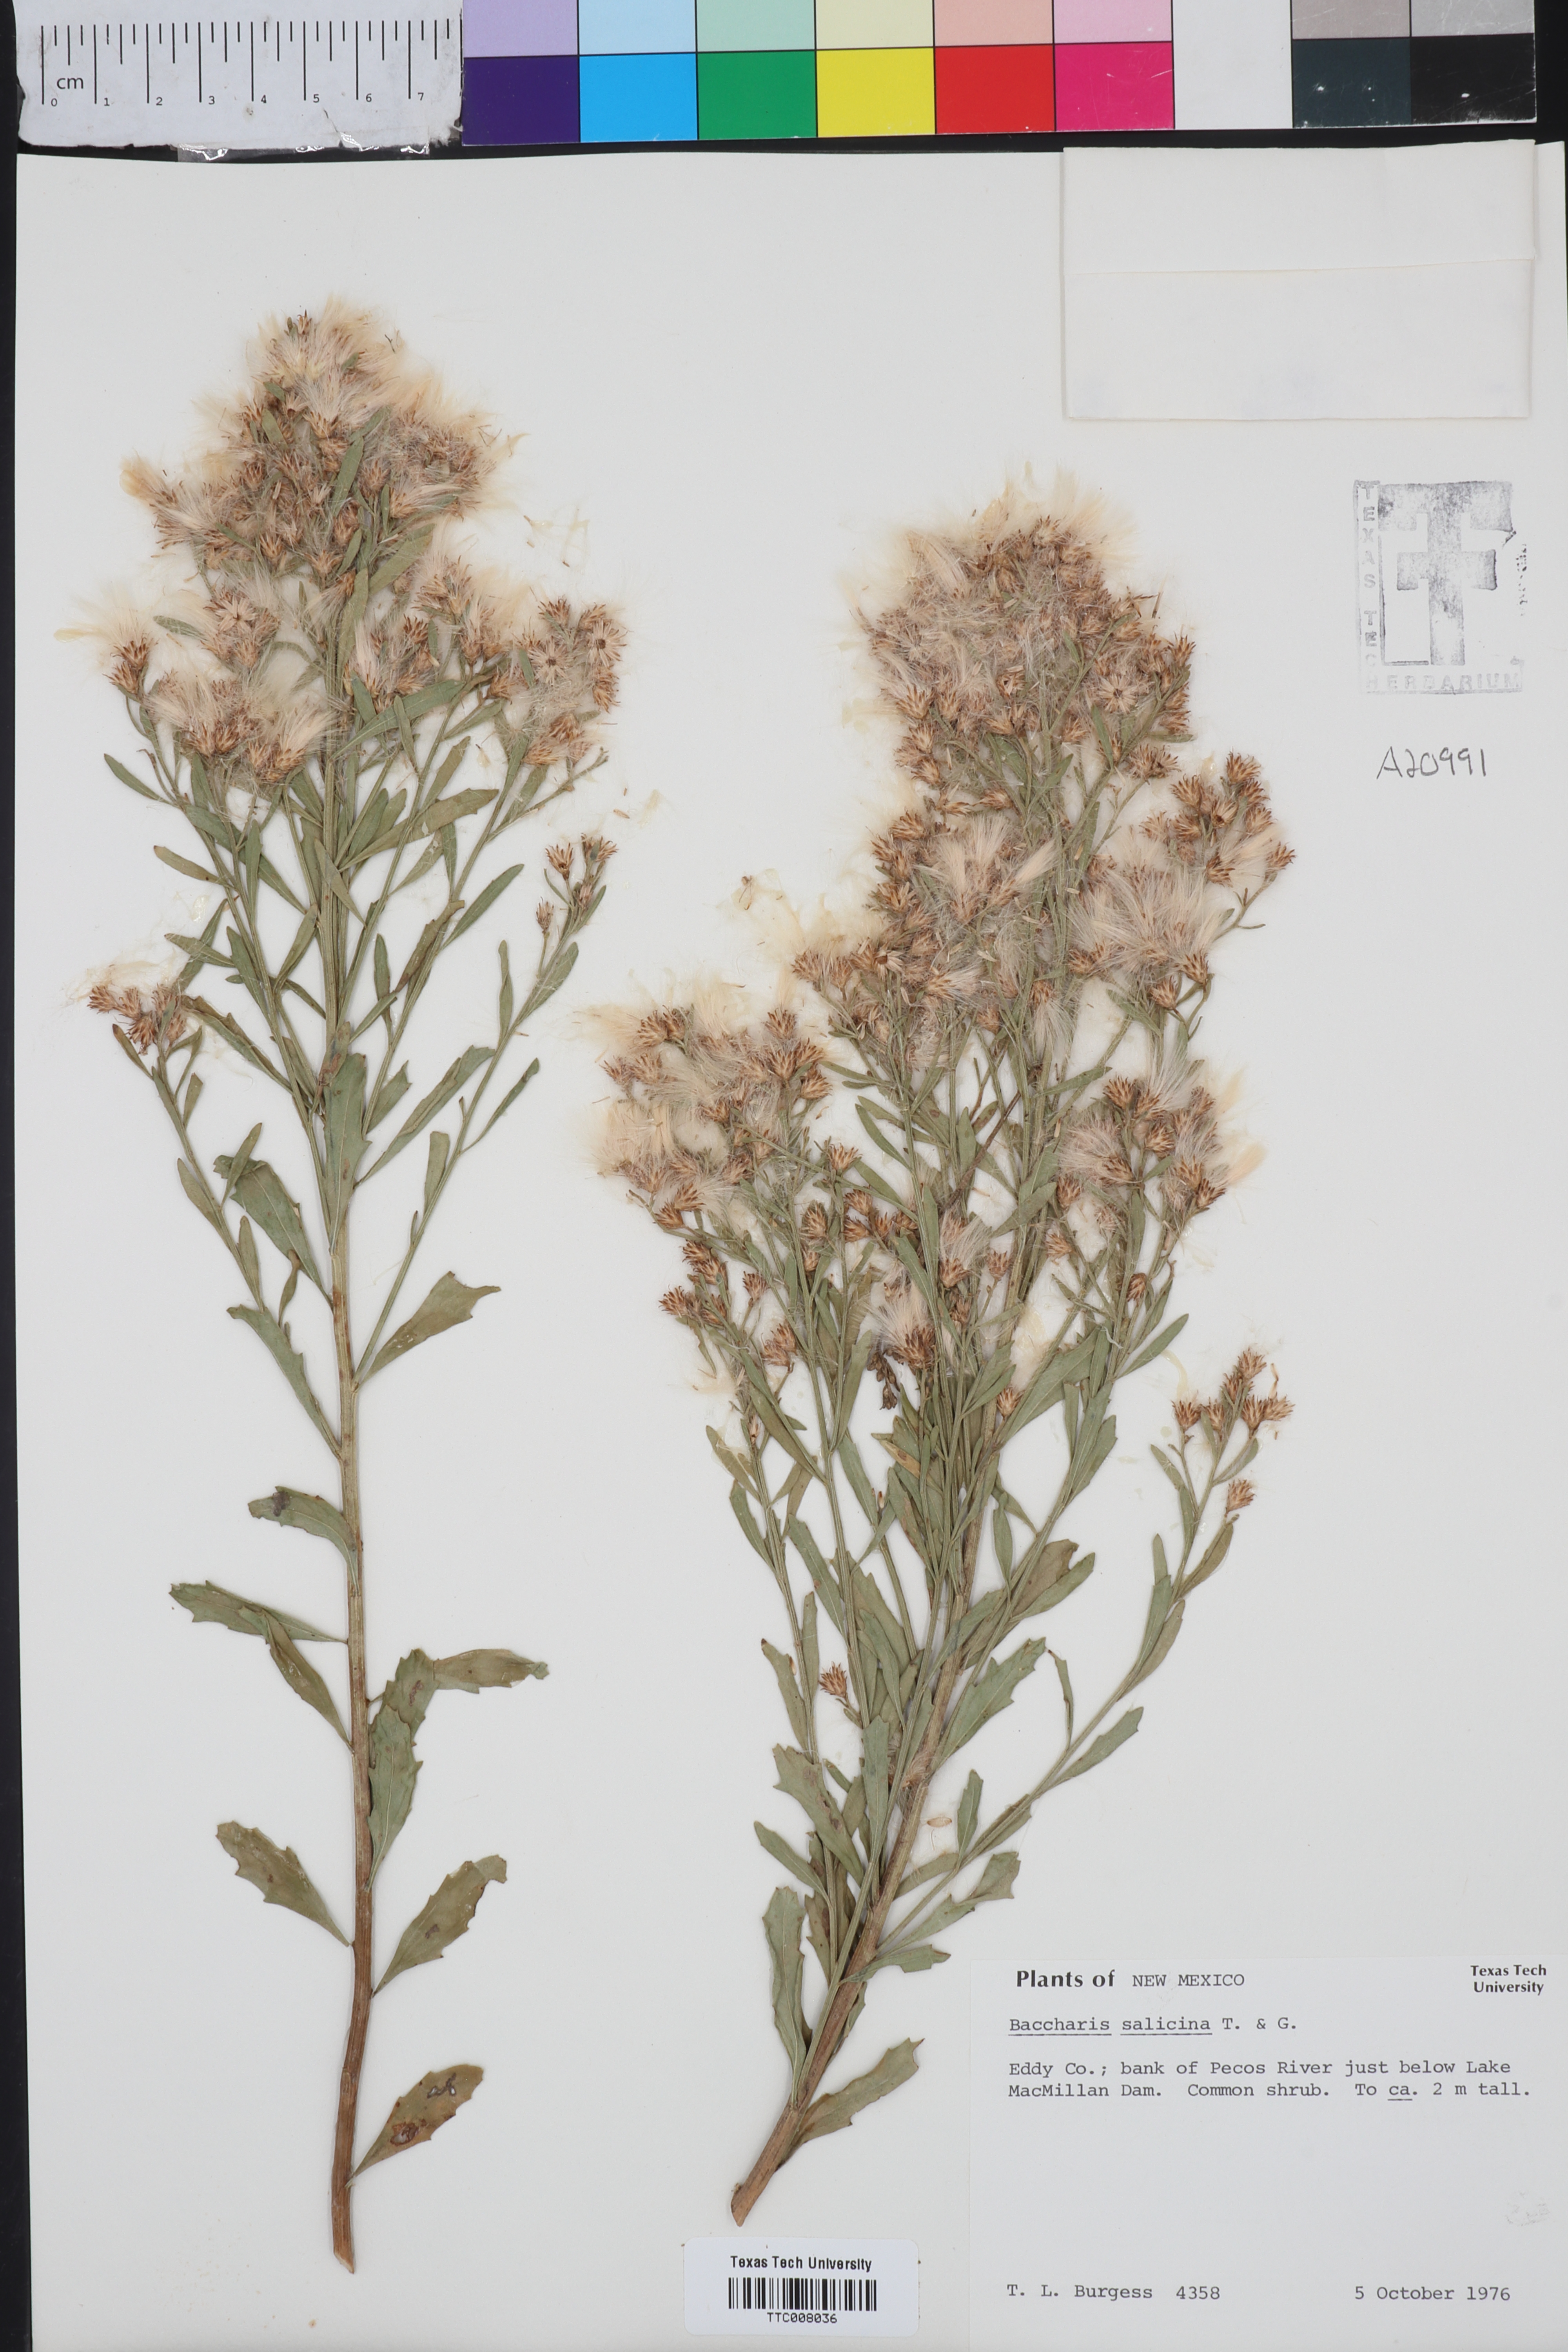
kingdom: Plantae
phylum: Tracheophyta
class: Magnoliopsida
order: Asterales
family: Asteraceae
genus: Baccharis
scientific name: Baccharis salicina
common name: Willow baccharis
